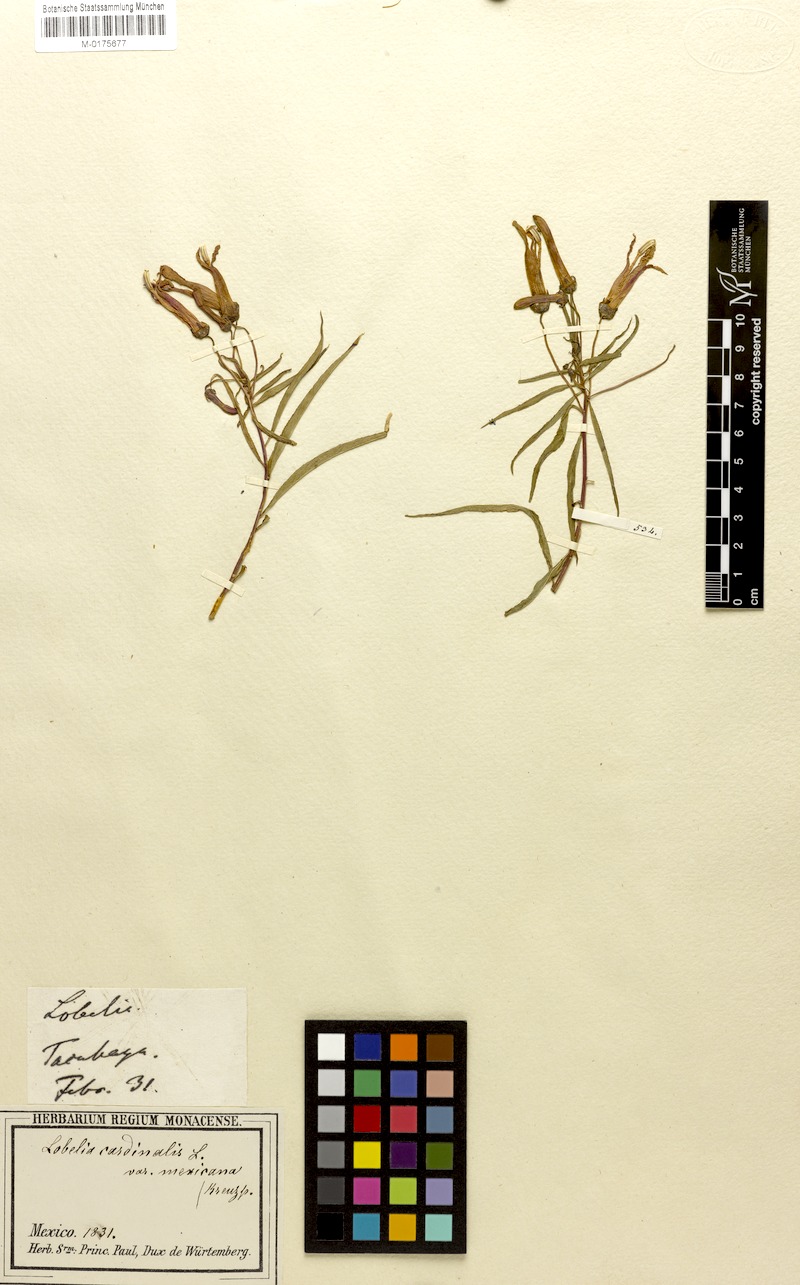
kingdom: Plantae
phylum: Tracheophyta
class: Magnoliopsida
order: Asterales
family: Campanulaceae
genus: Lobelia
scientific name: Lobelia cardinalis
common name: Cardinal flower
